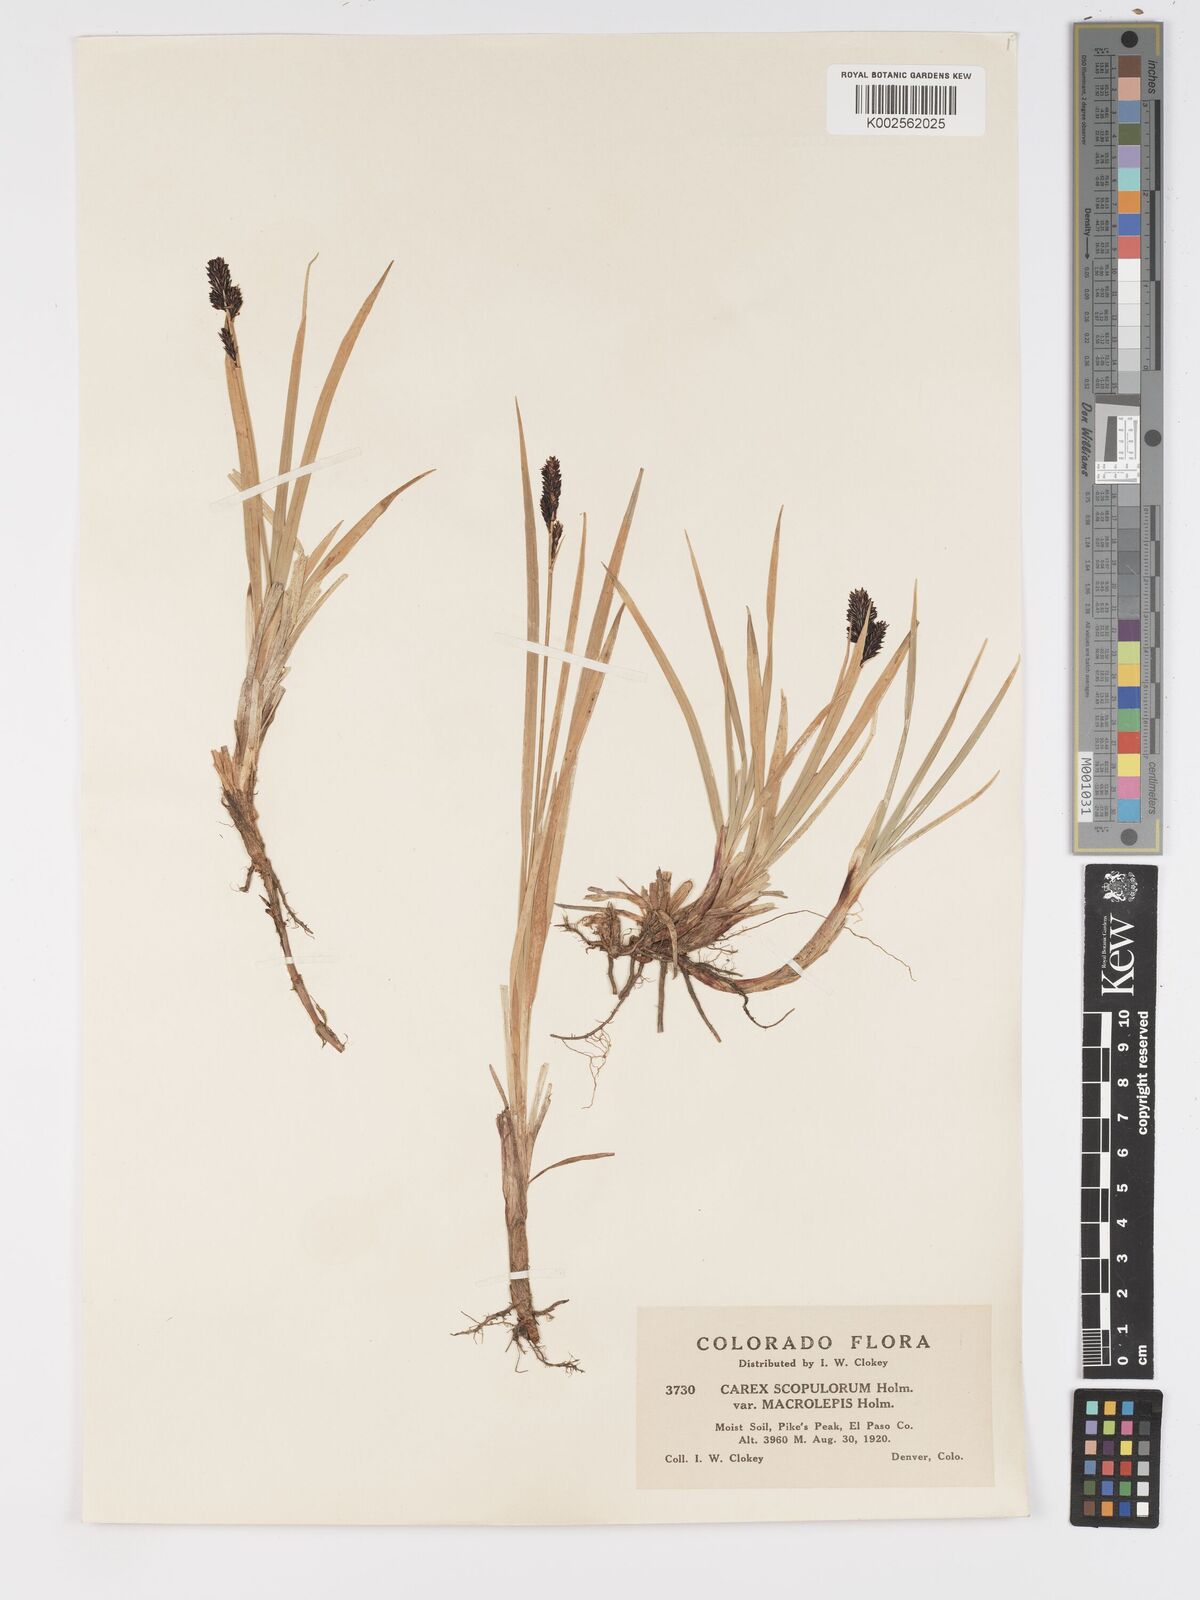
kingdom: Plantae
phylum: Tracheophyta
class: Liliopsida
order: Poales
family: Cyperaceae
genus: Carex
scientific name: Carex scopulorum
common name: Holm's rocky mountain sedge
